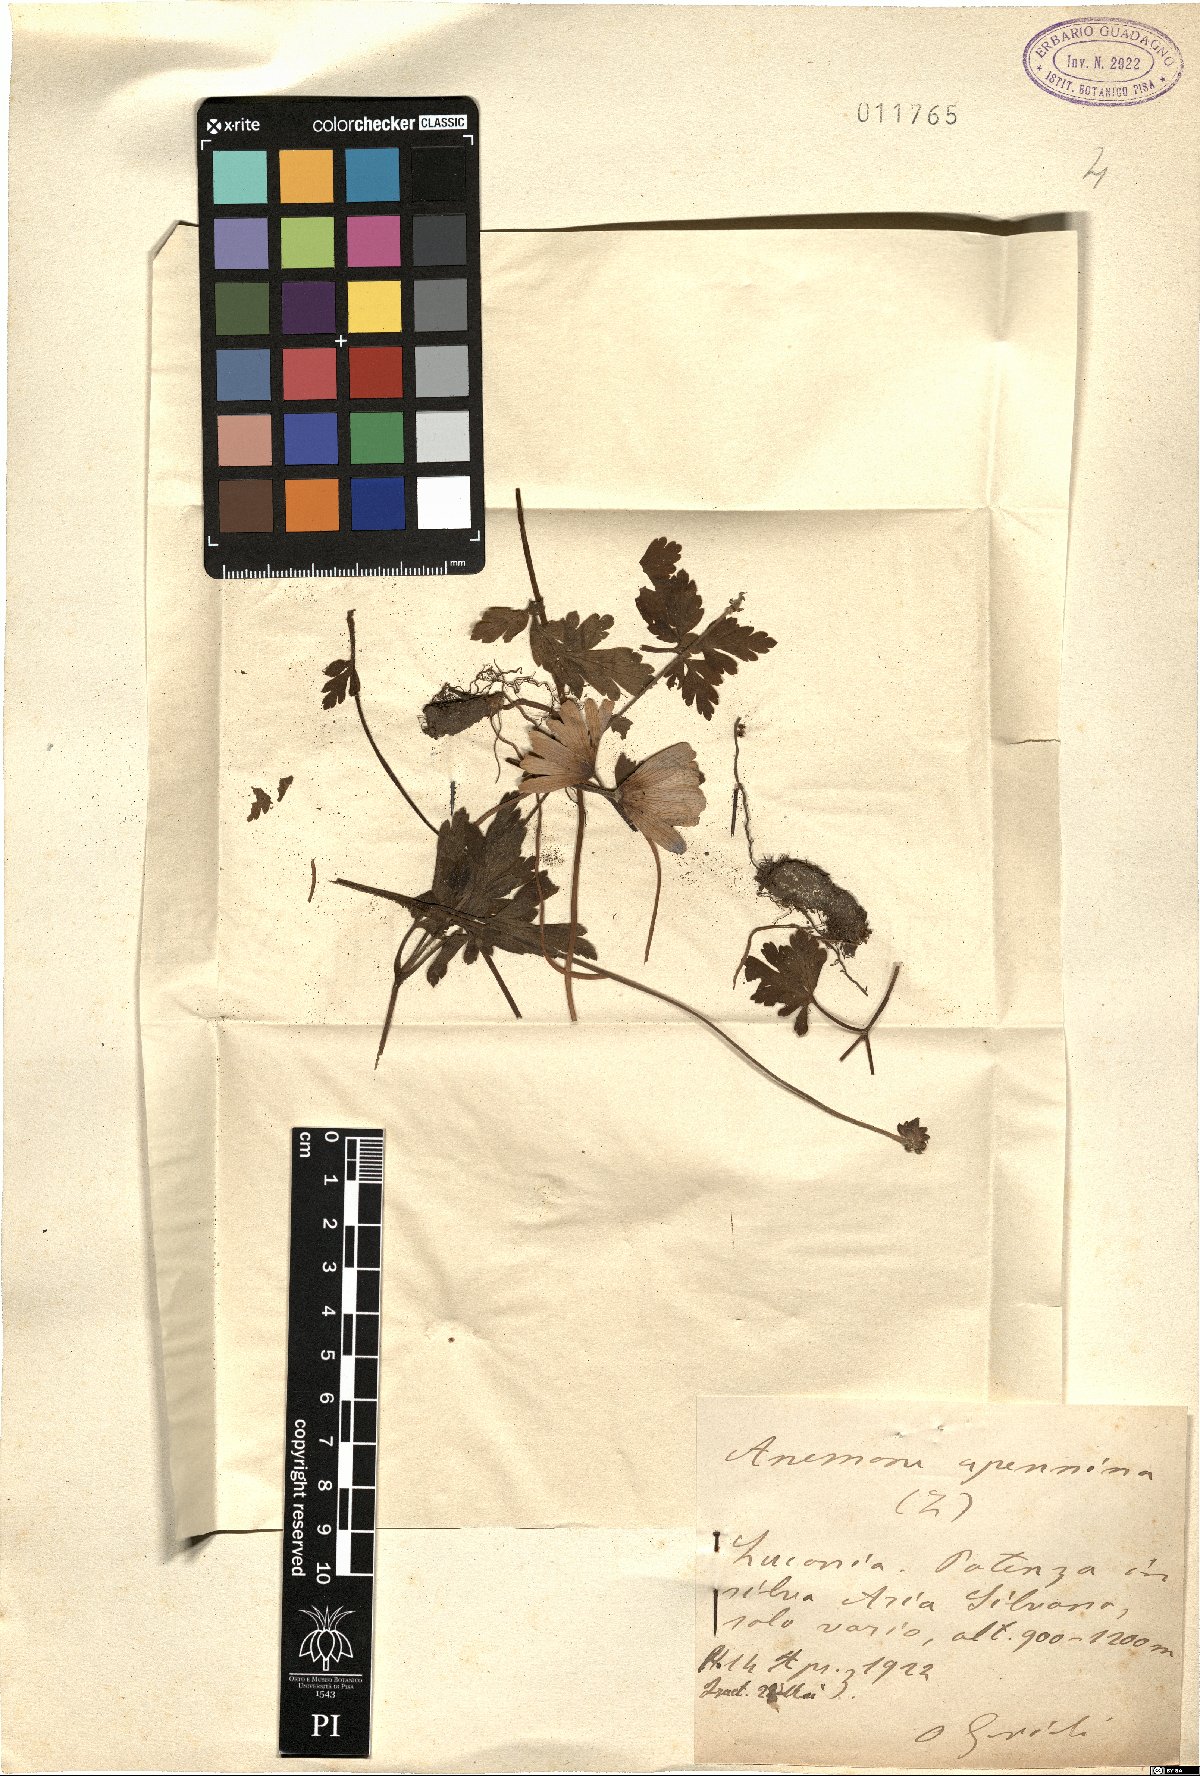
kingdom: Plantae
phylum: Tracheophyta
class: Magnoliopsida
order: Ranunculales
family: Ranunculaceae
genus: Anemone
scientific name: Anemone apennina
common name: Blue anemone
